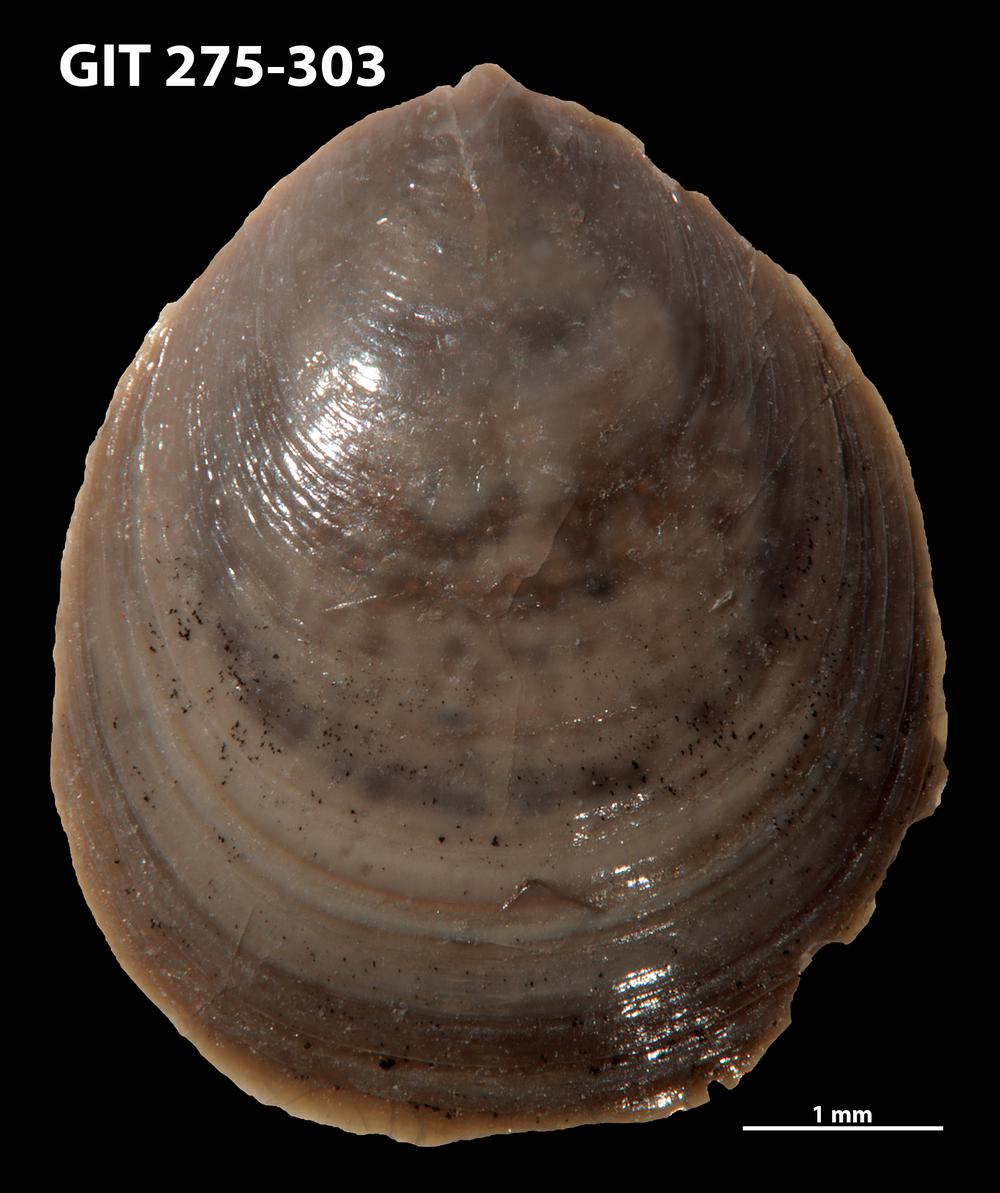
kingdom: Animalia
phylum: Brachiopoda
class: Lingulata
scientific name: Lingulata
